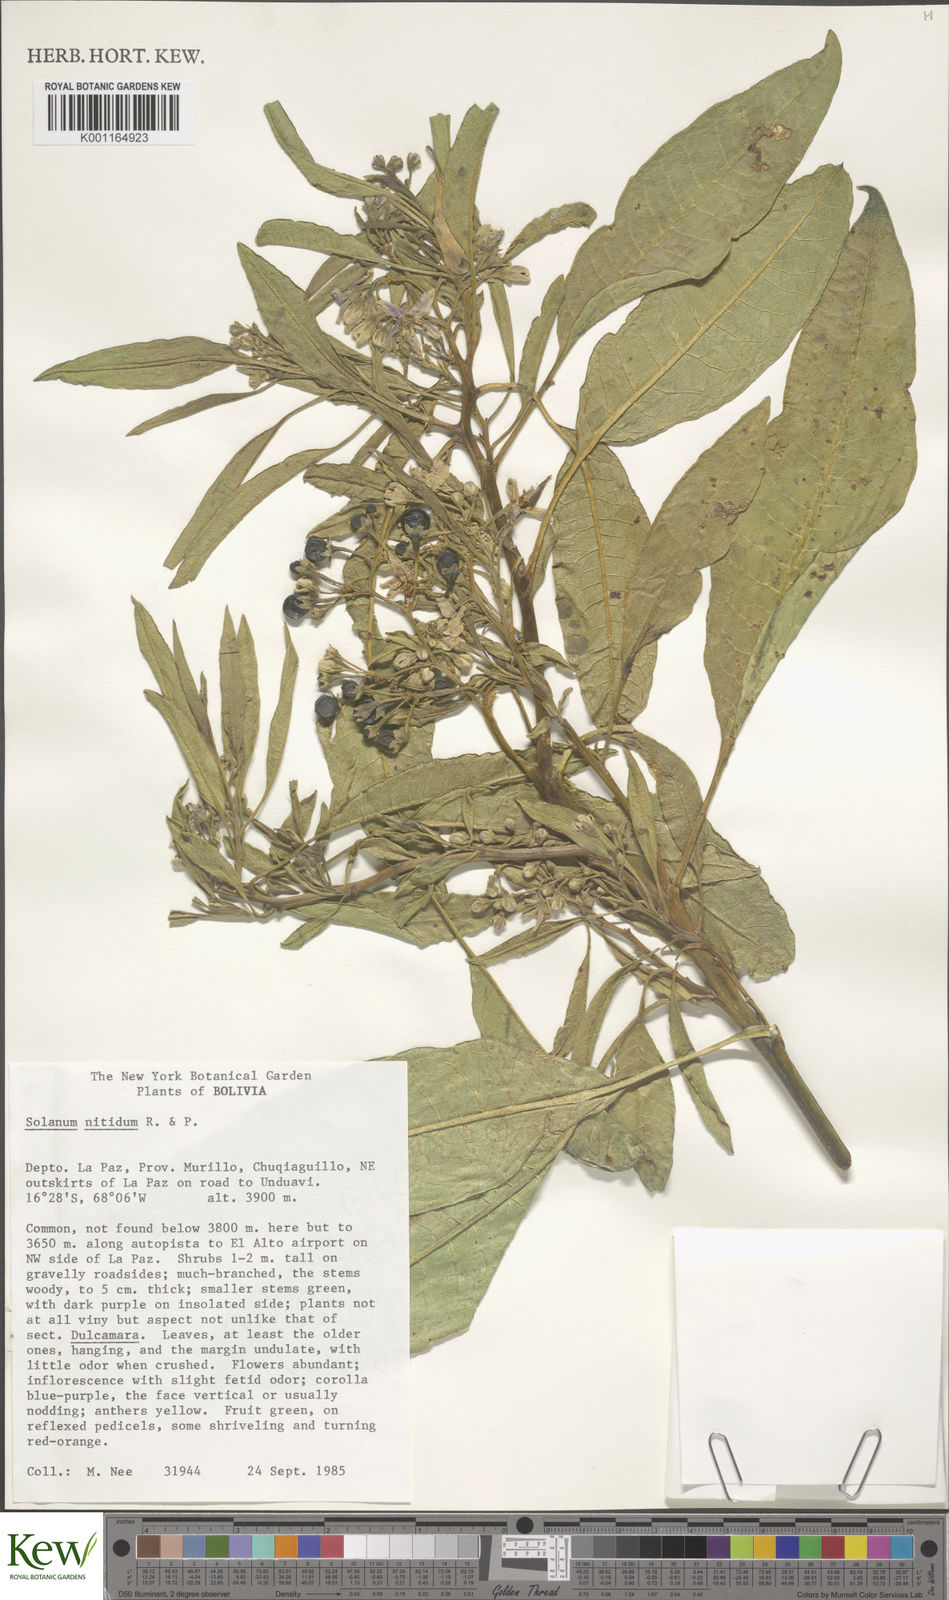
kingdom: Plantae
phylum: Tracheophyta
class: Magnoliopsida
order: Solanales
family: Solanaceae
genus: Solanum
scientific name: Solanum nitidum
